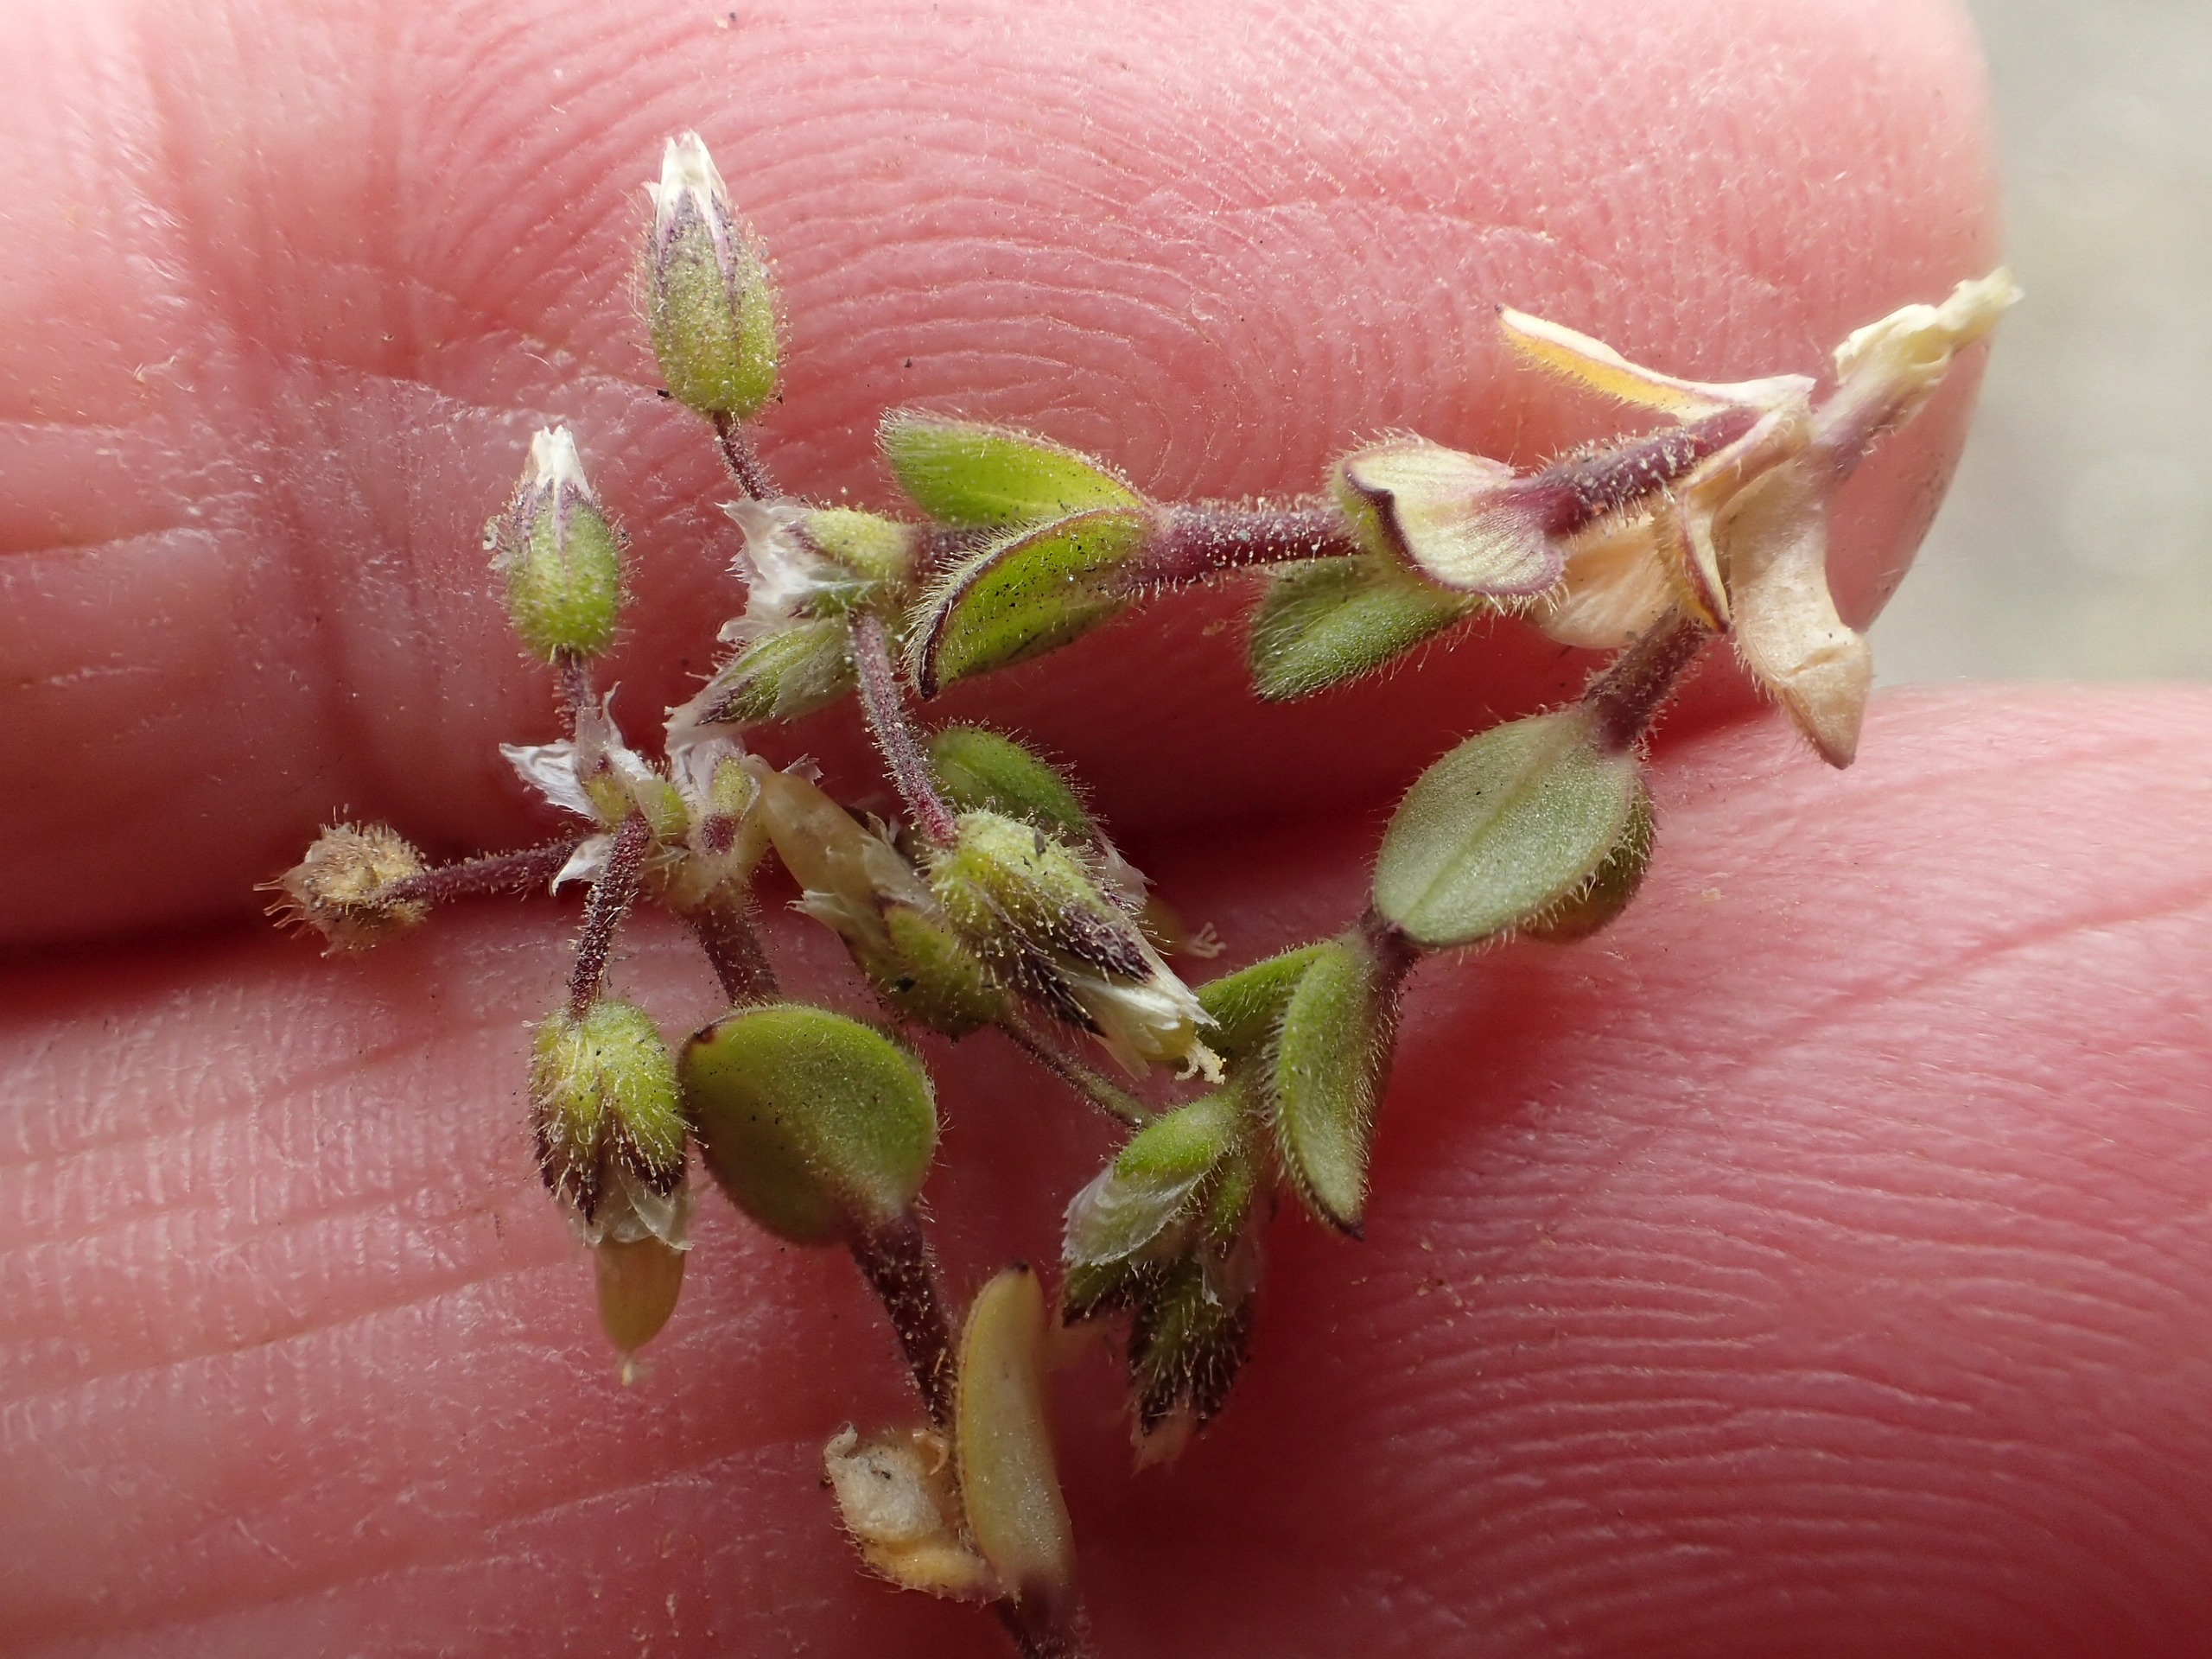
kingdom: Plantae
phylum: Tracheophyta
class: Magnoliopsida
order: Caryophyllales
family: Caryophyllaceae
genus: Cerastium
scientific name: Cerastium semidecandrum
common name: Femhannet hønsetarm
